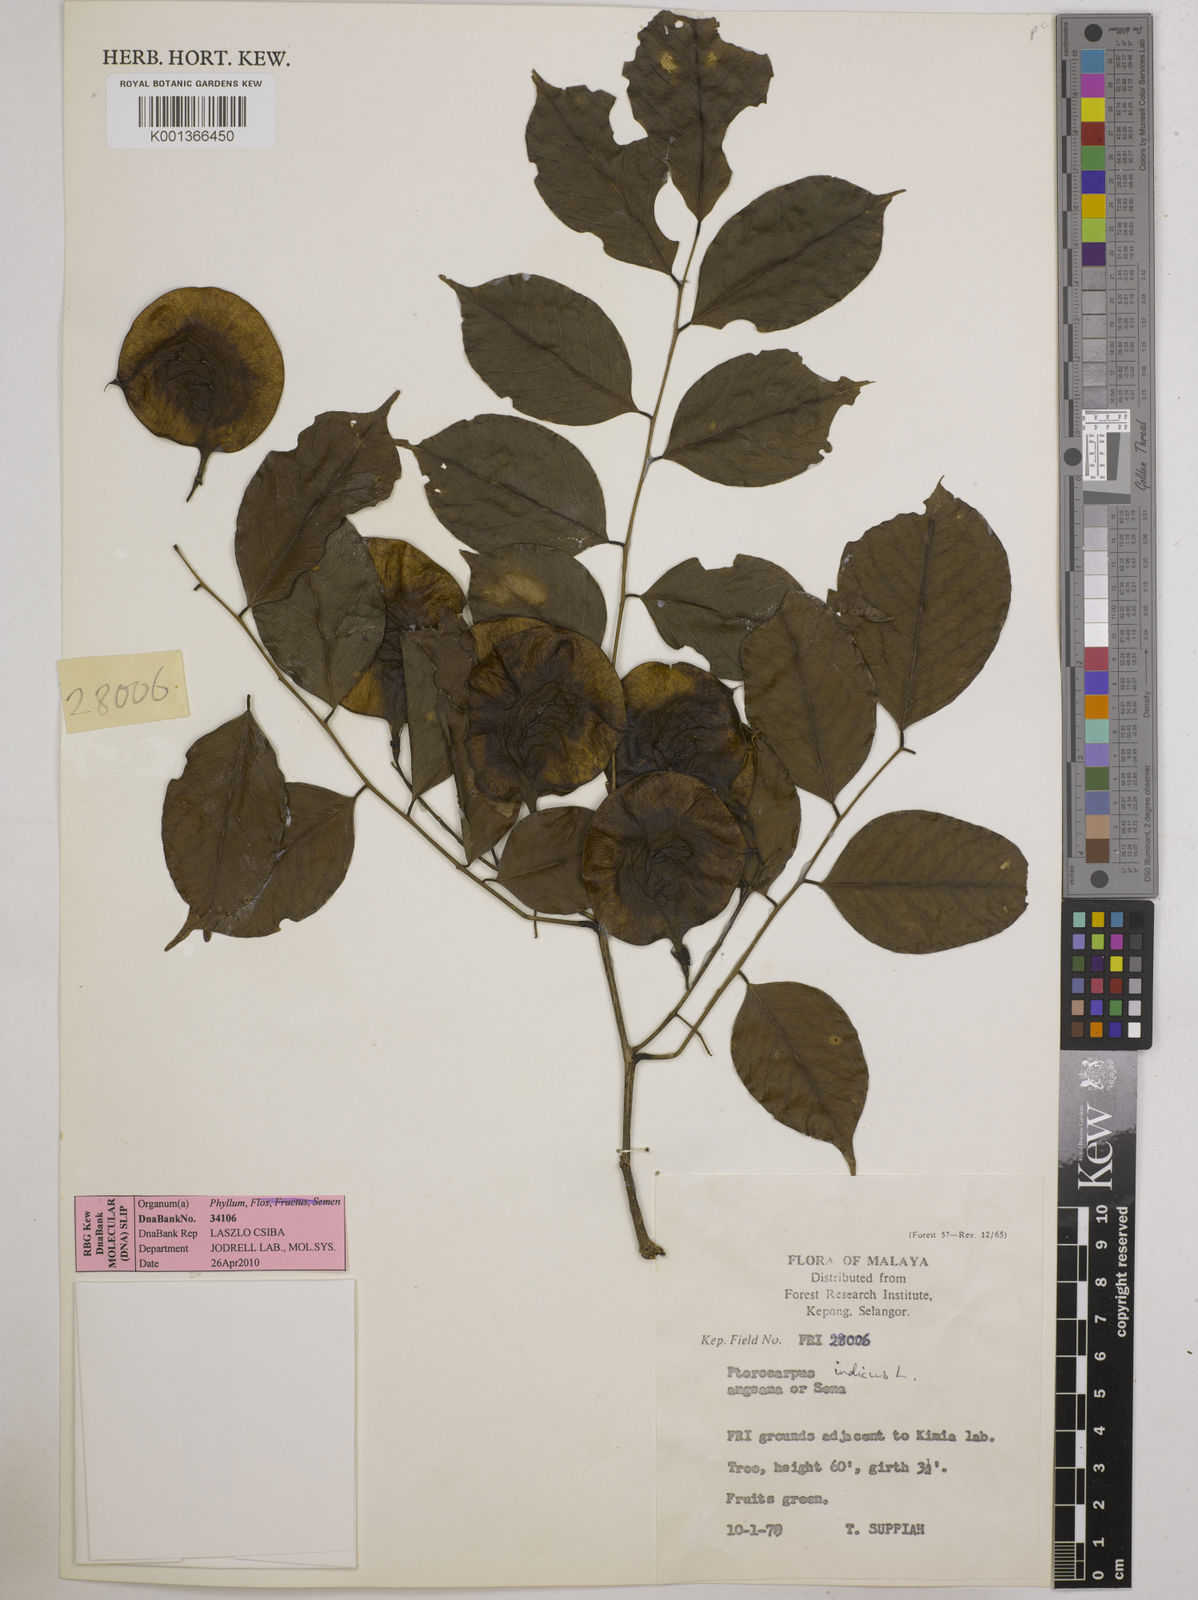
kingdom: Plantae
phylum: Tracheophyta
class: Magnoliopsida
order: Fabales
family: Fabaceae
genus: Pterocarpus
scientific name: Pterocarpus indicus
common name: Burmese rosewood
